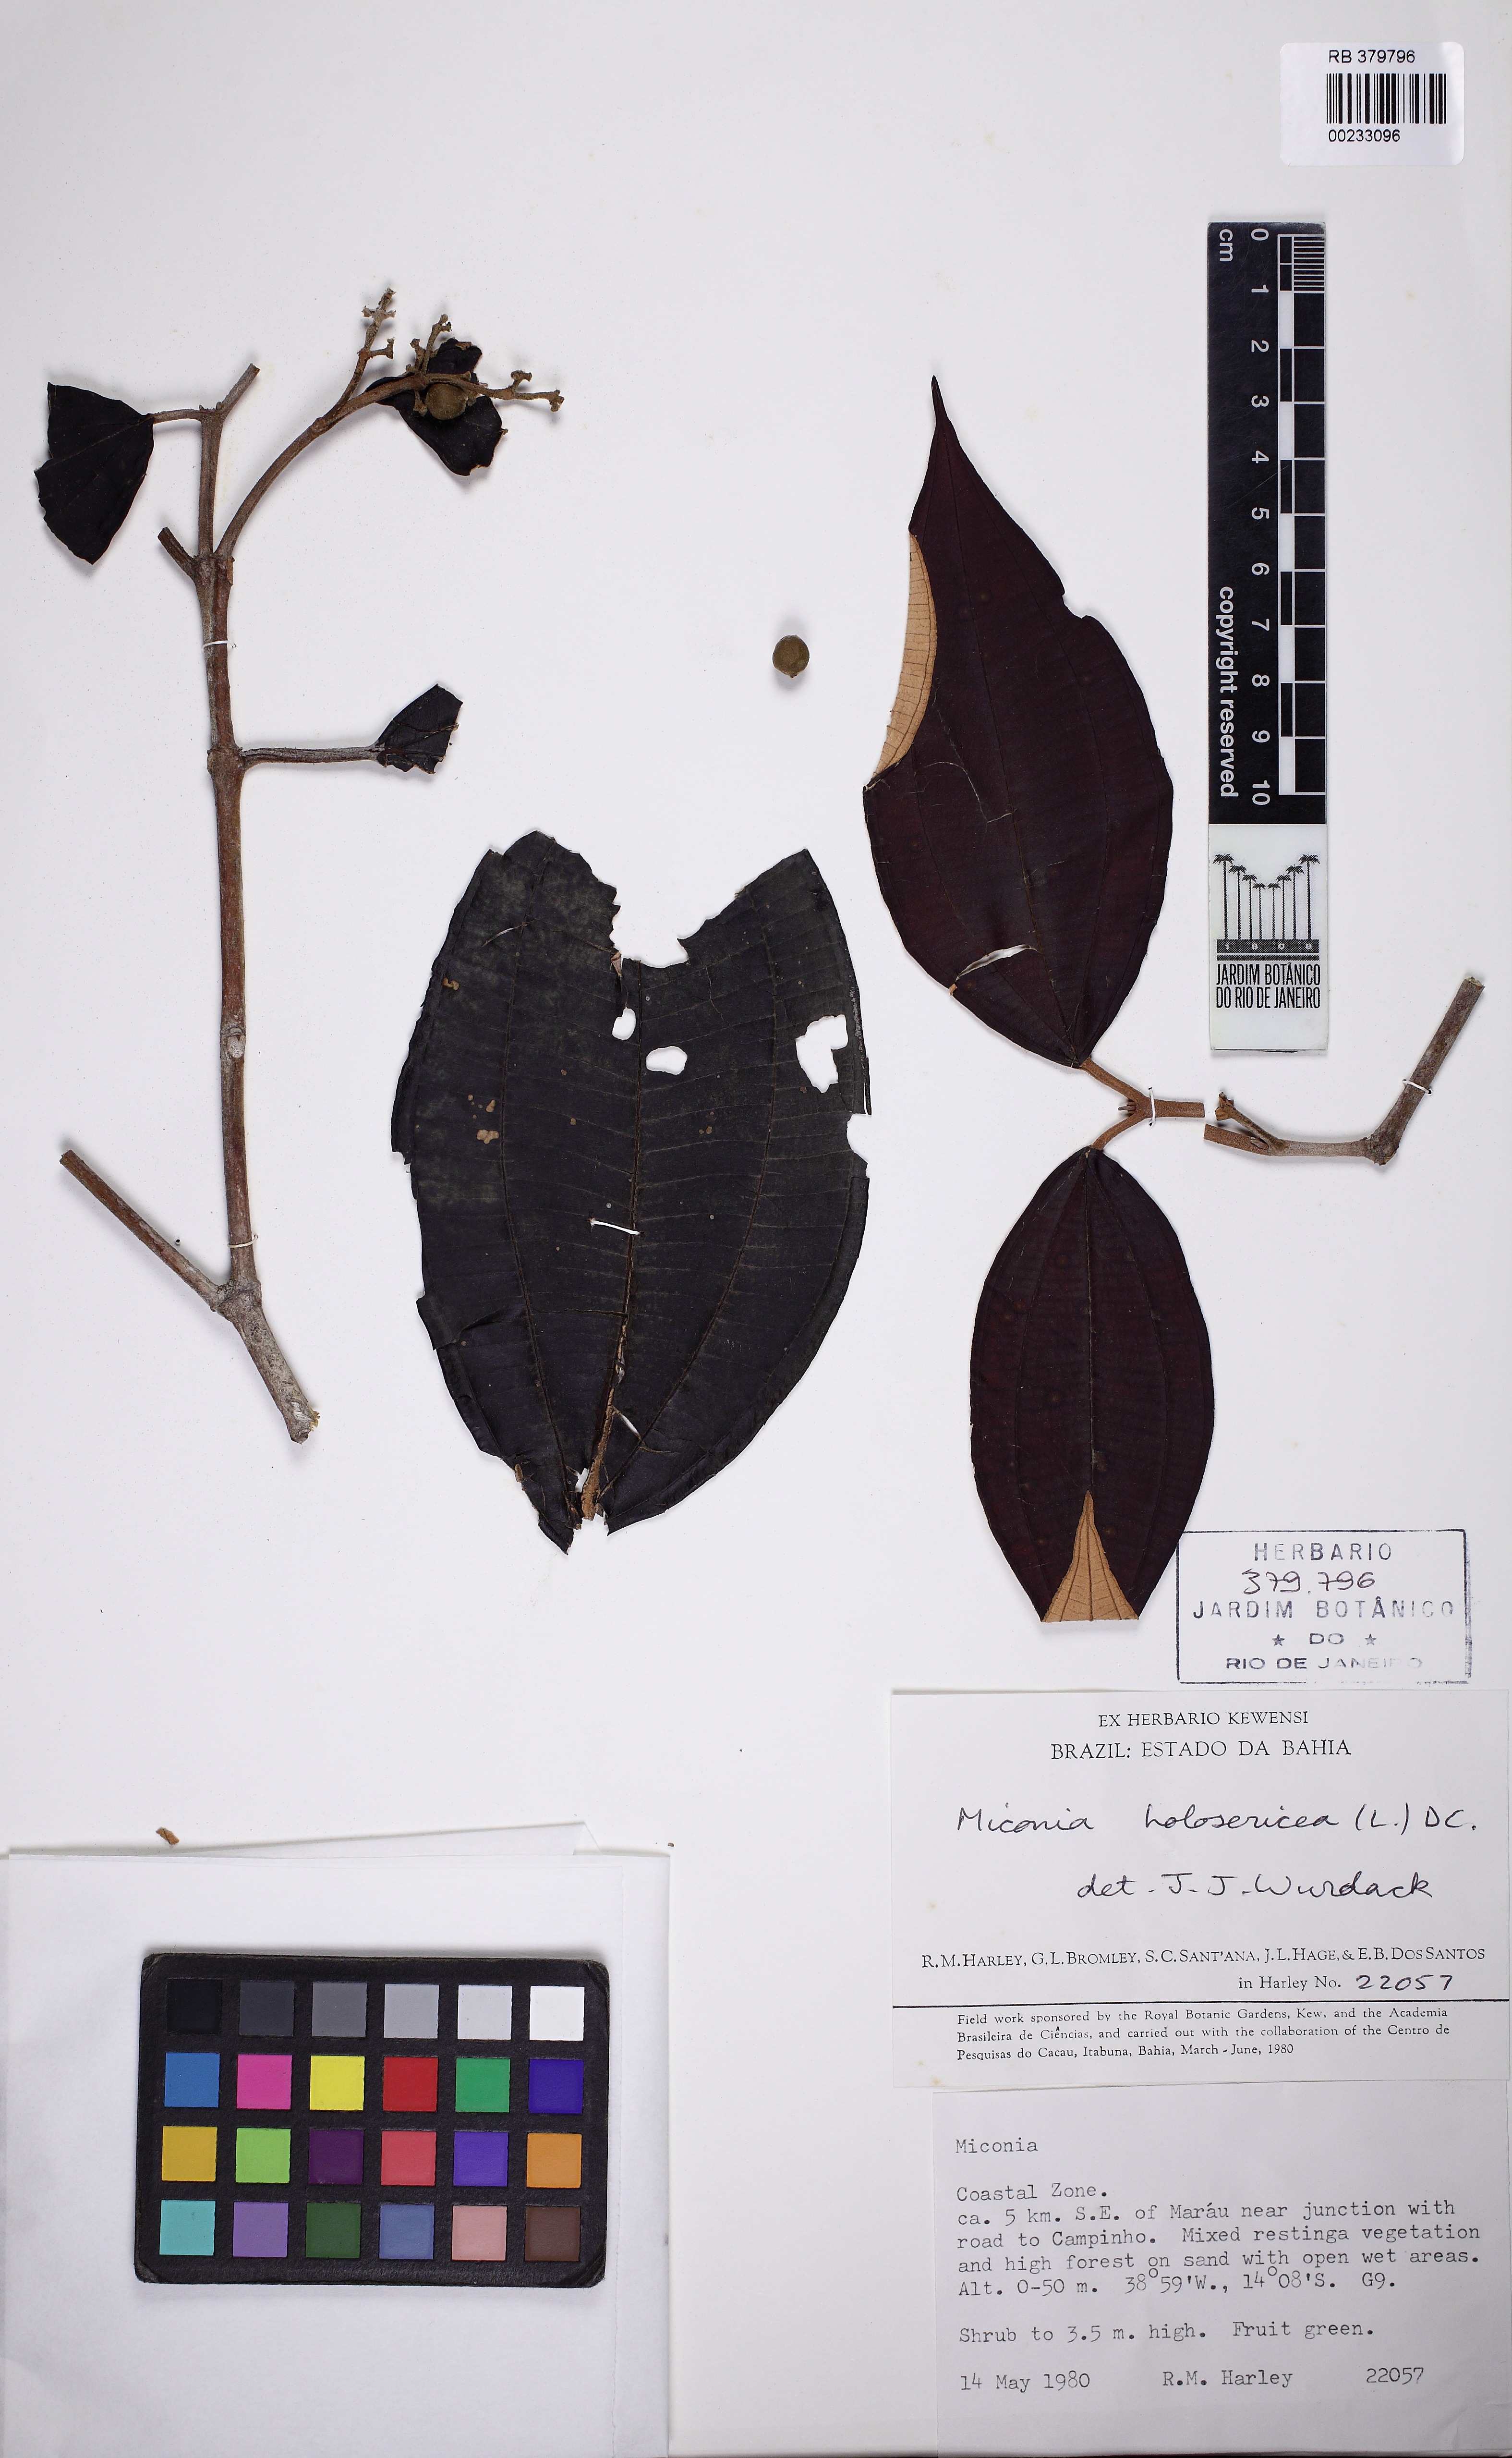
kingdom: Plantae
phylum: Tracheophyta
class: Magnoliopsida
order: Myrtales
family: Melastomataceae
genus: Miconia
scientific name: Miconia holosericea
